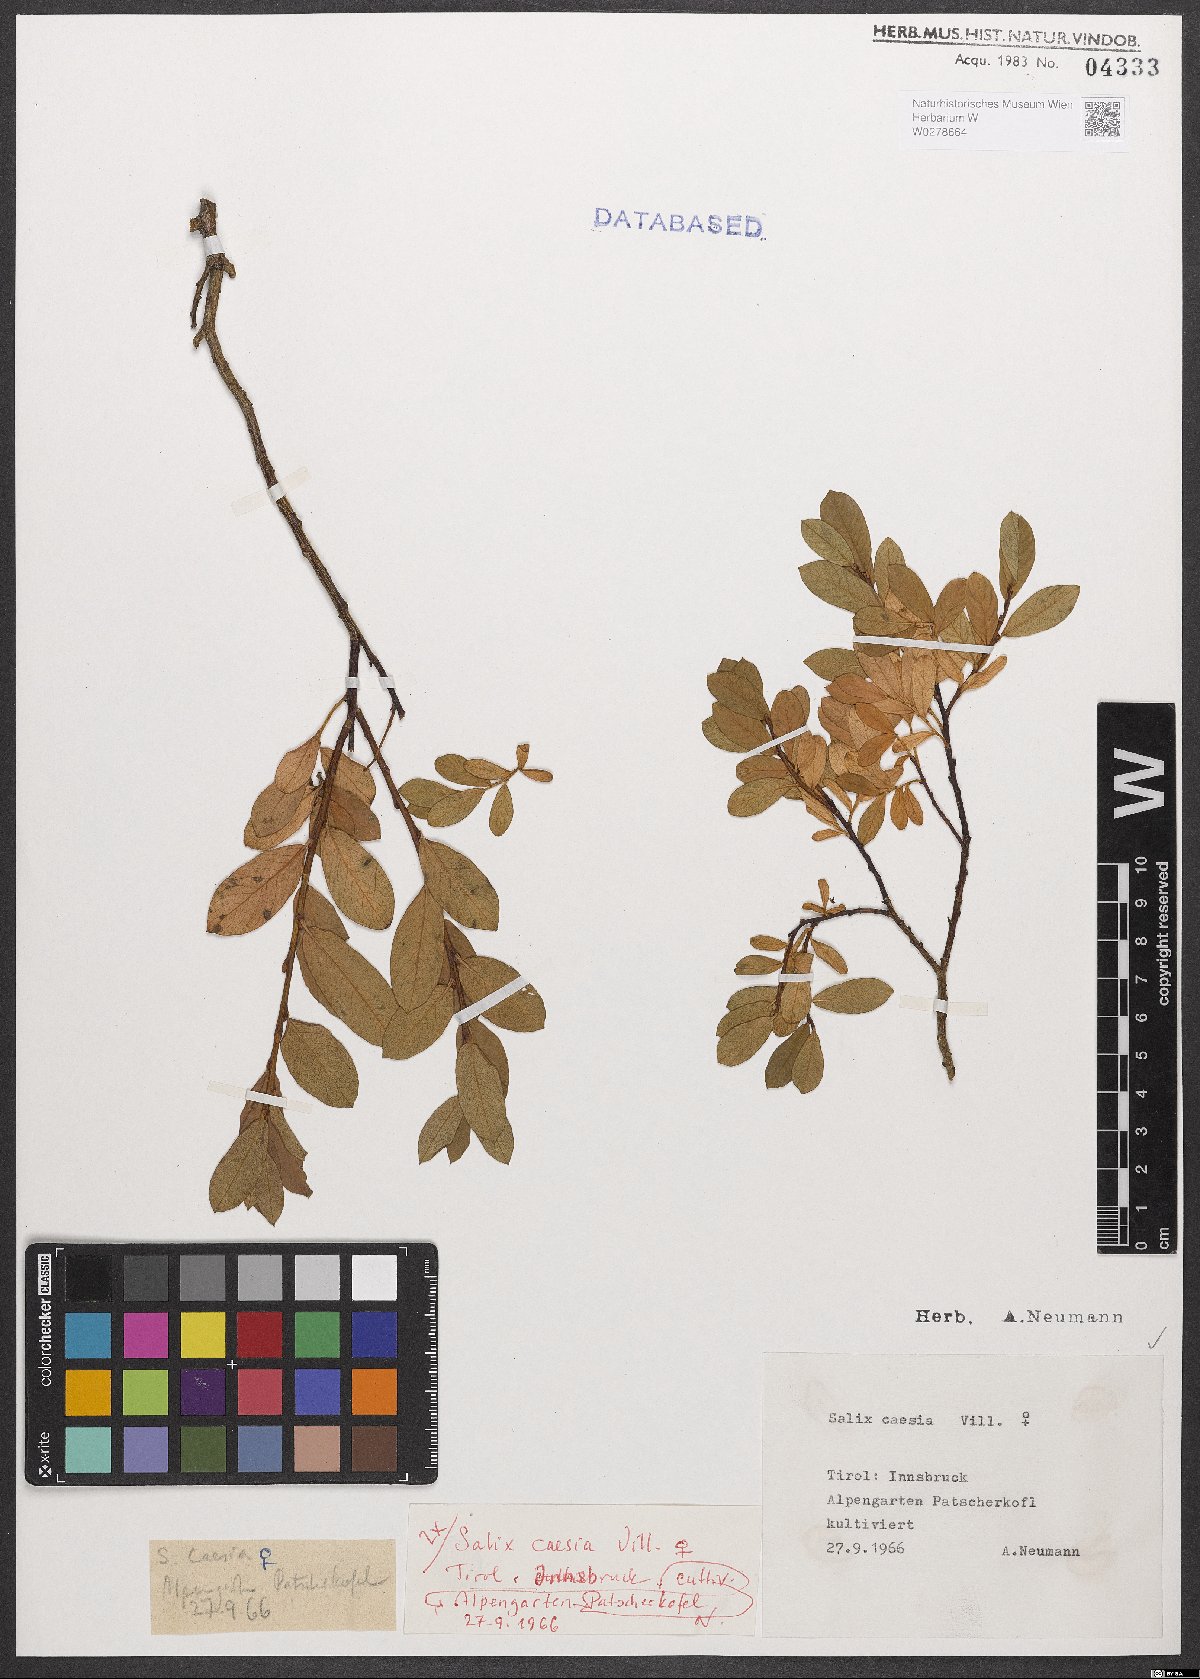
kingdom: Plantae
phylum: Tracheophyta
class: Magnoliopsida
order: Malpighiales
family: Salicaceae
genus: Salix
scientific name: Salix caesia
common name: Blue willow
